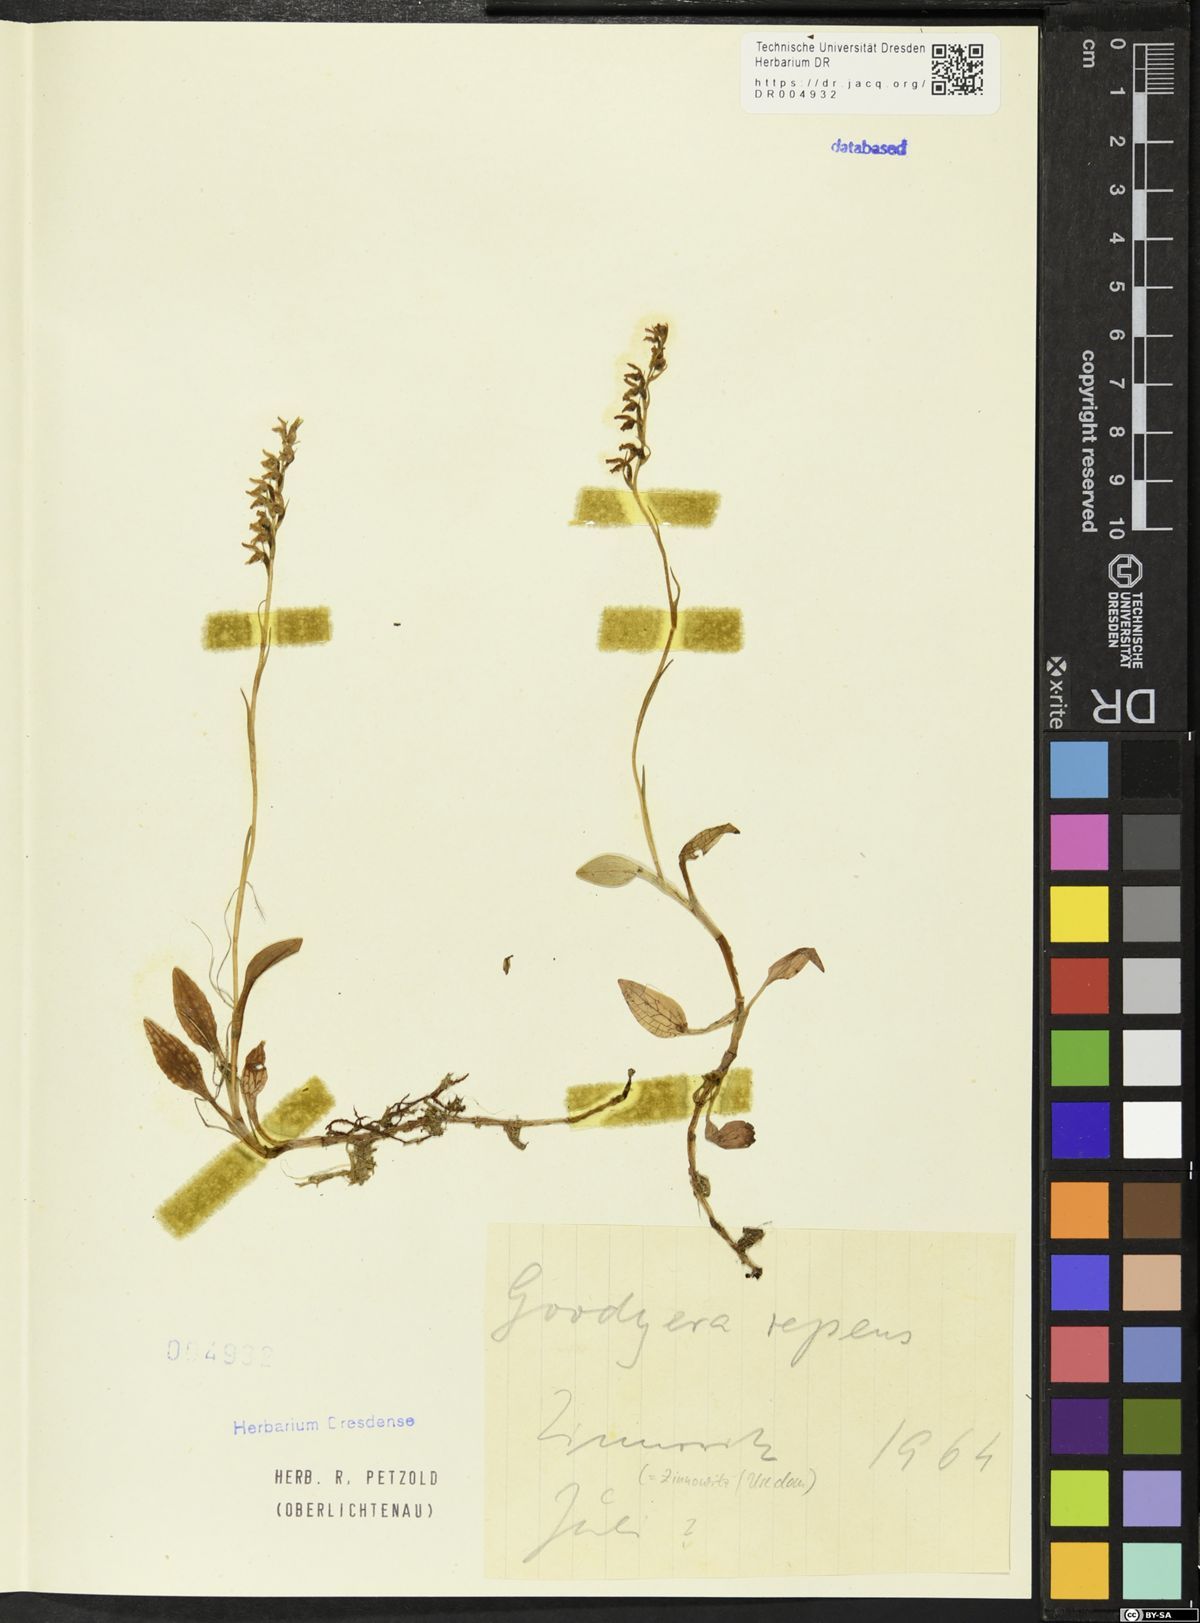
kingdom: Plantae
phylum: Tracheophyta
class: Liliopsida
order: Asparagales
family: Orchidaceae
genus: Goodyera
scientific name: Goodyera repens
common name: Creeping lady's-tresses
